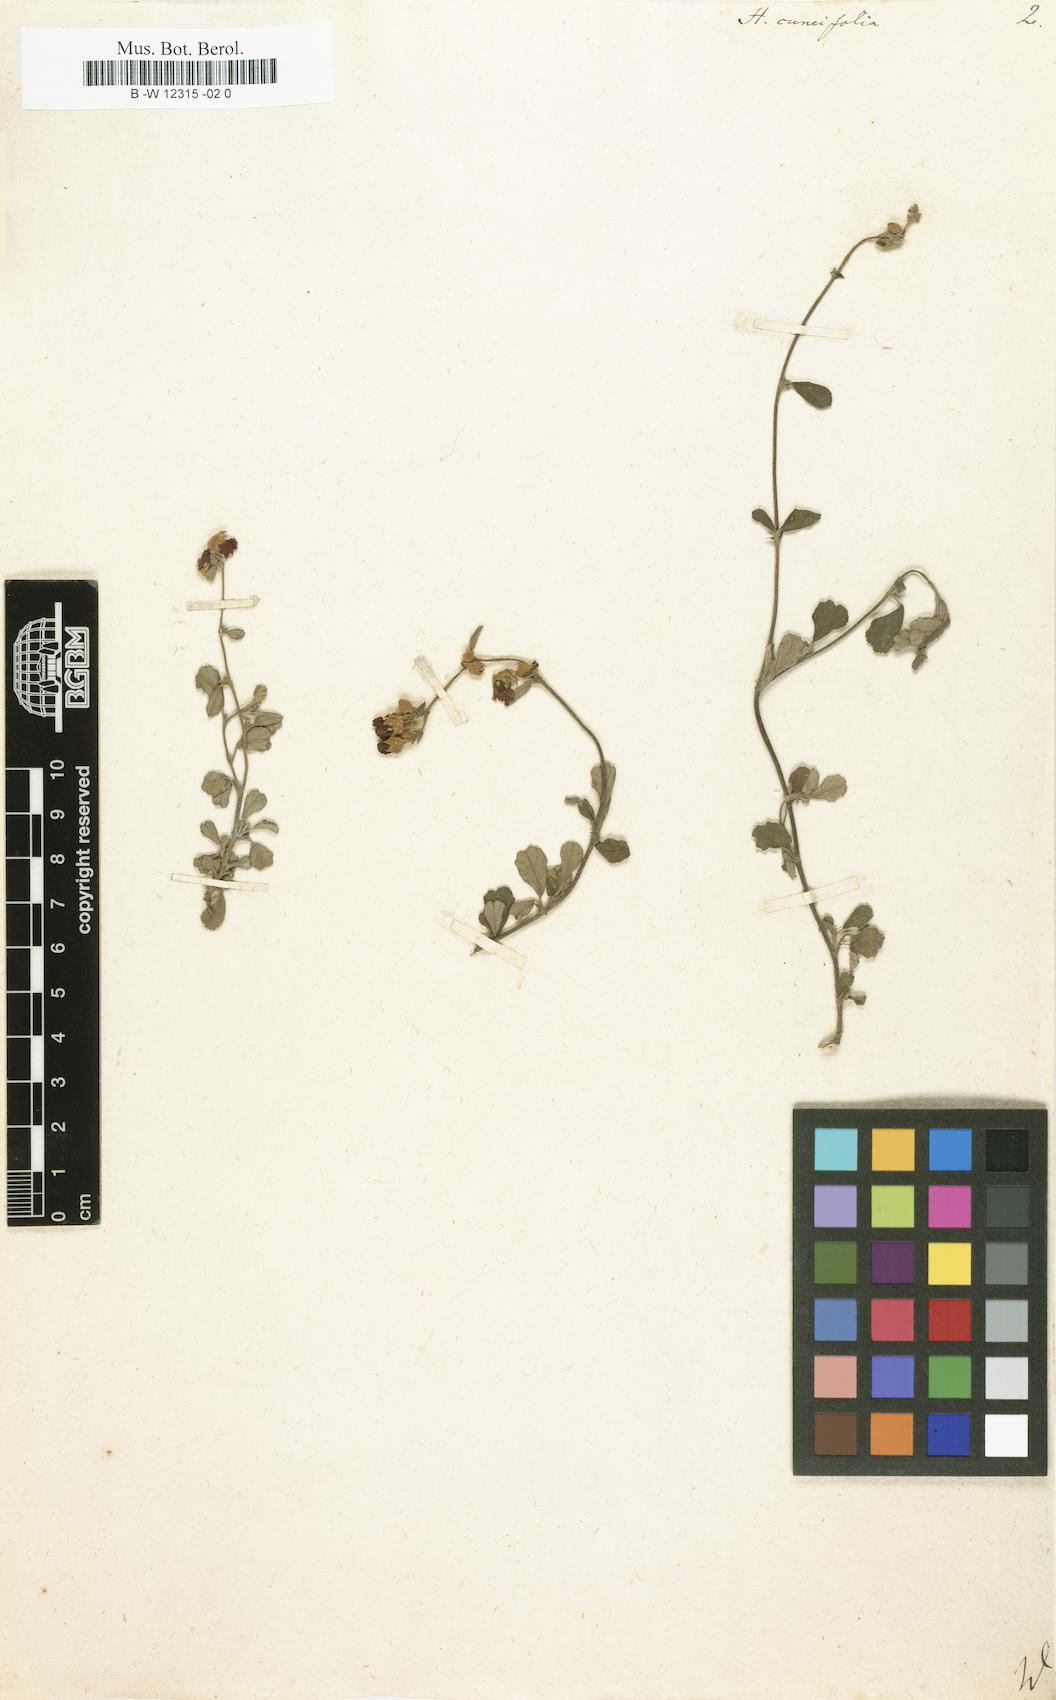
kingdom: Plantae
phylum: Tracheophyta
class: Magnoliopsida
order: Malvales
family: Malvaceae
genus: Hermannia
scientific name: Hermannia cuneifolia
